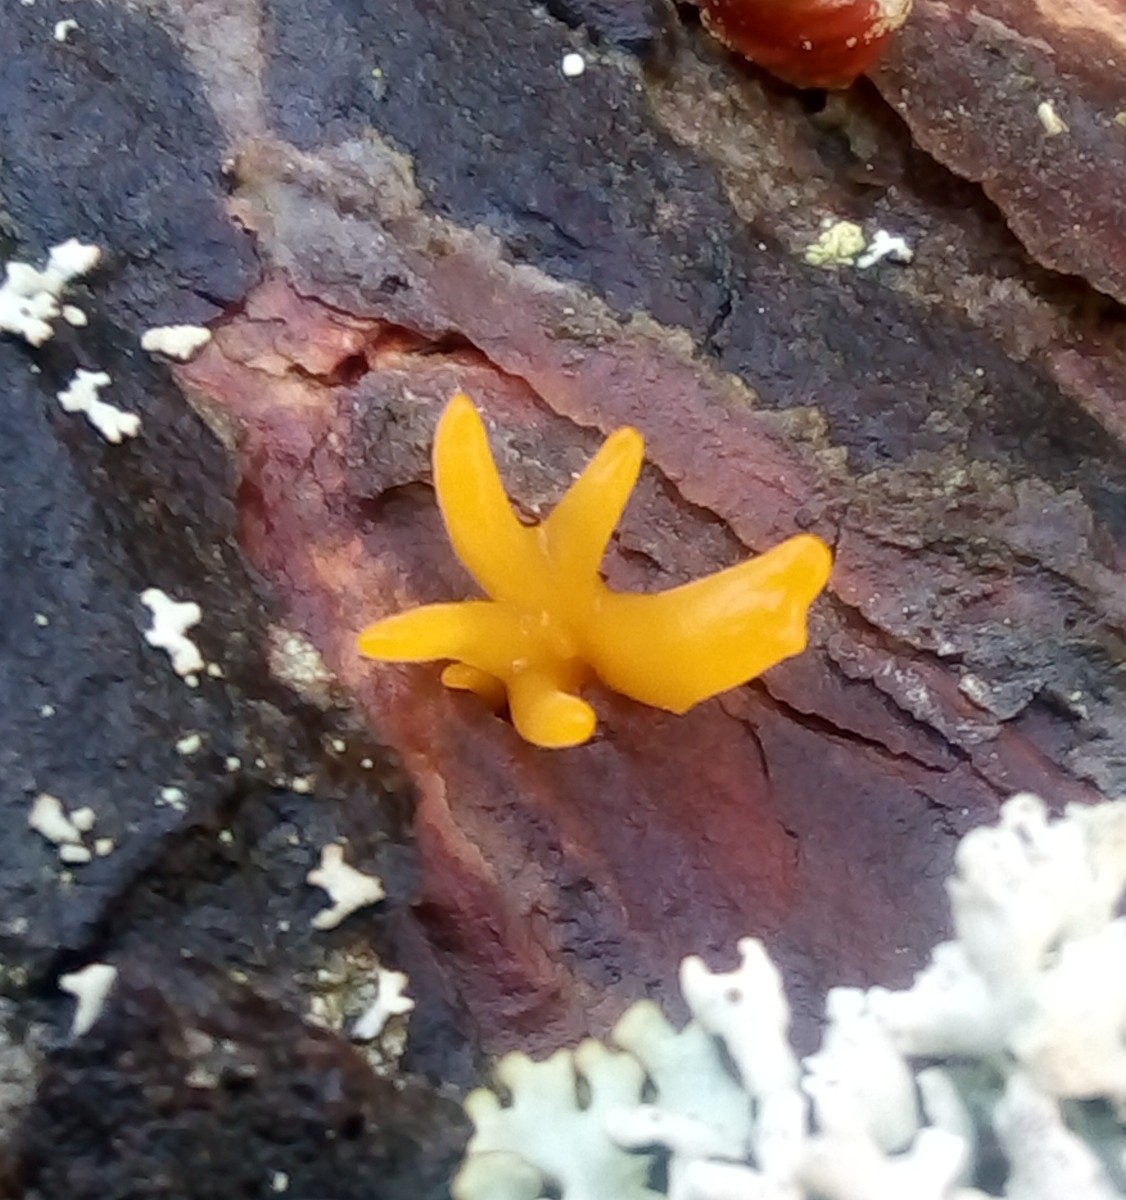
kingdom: Fungi
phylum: Basidiomycota
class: Dacrymycetes
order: Dacrymycetales
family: Dacrymycetaceae
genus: Calocera
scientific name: Calocera furcata
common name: fyrre-guldgaffel
